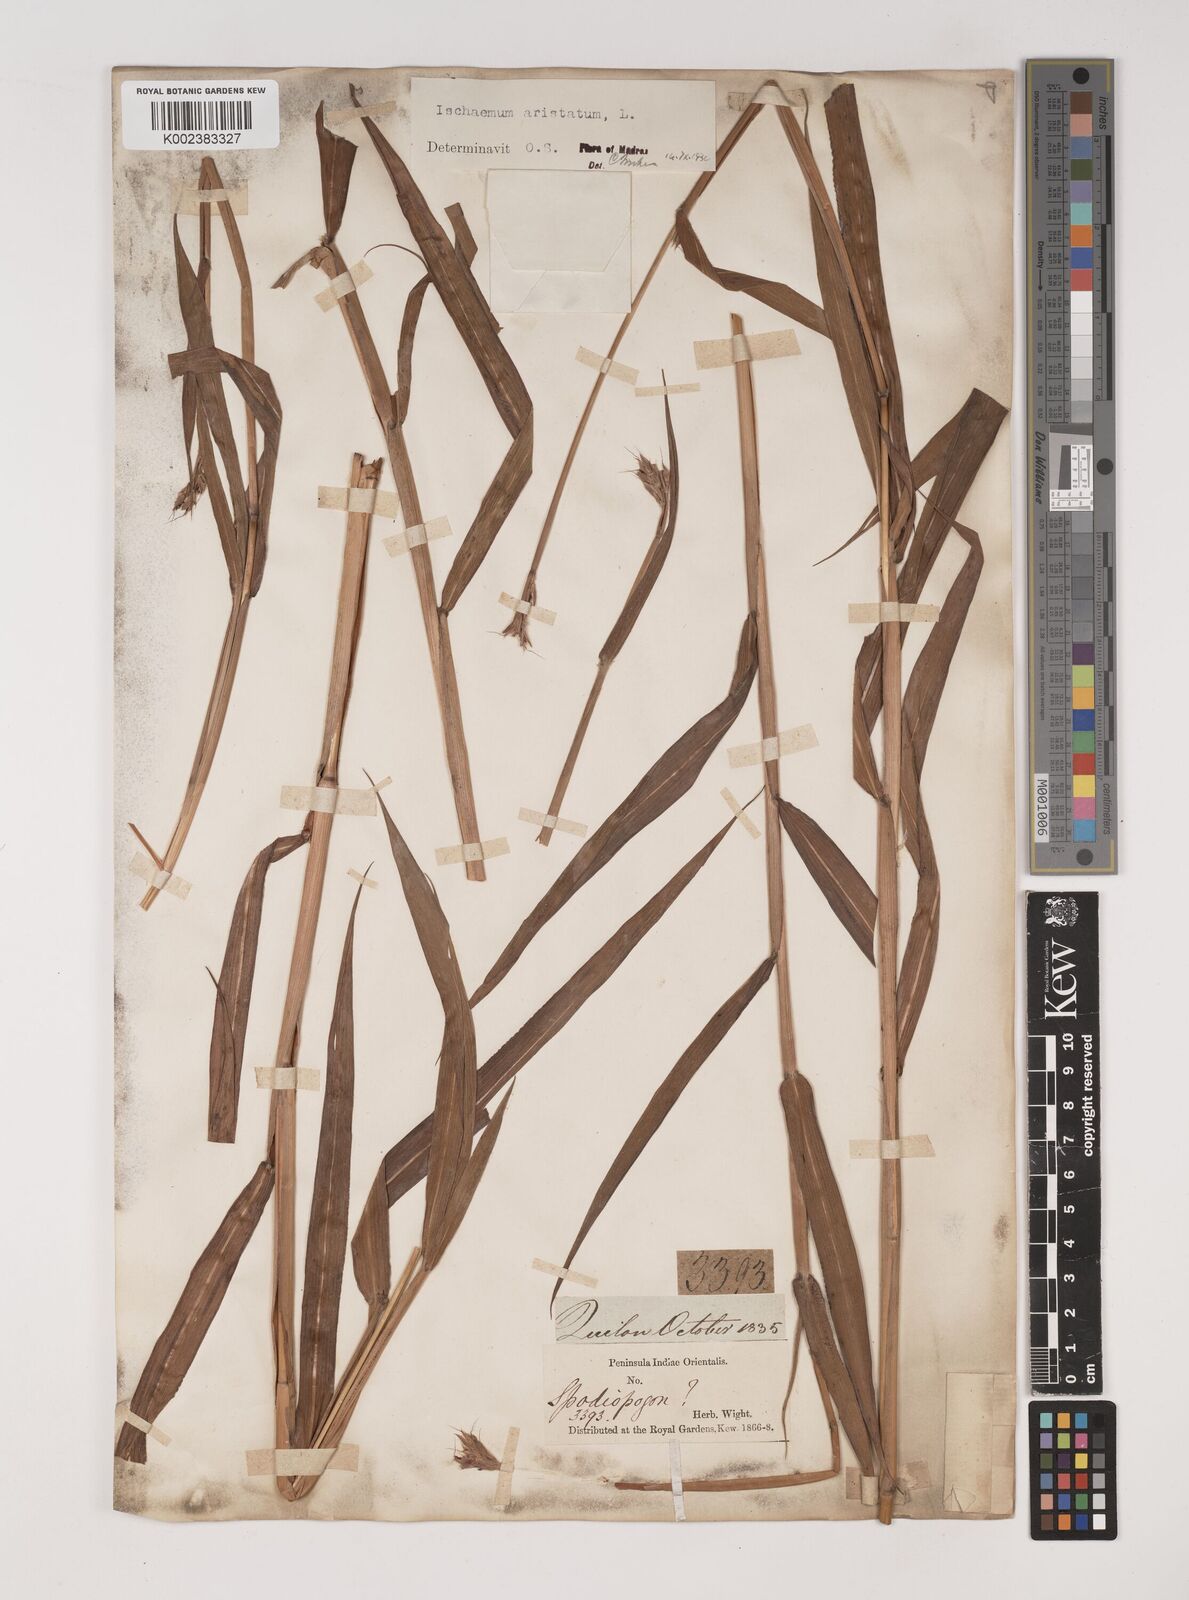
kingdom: Plantae
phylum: Tracheophyta
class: Liliopsida
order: Poales
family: Poaceae
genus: Polytrias
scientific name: Polytrias indica
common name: Indian murainagrass
